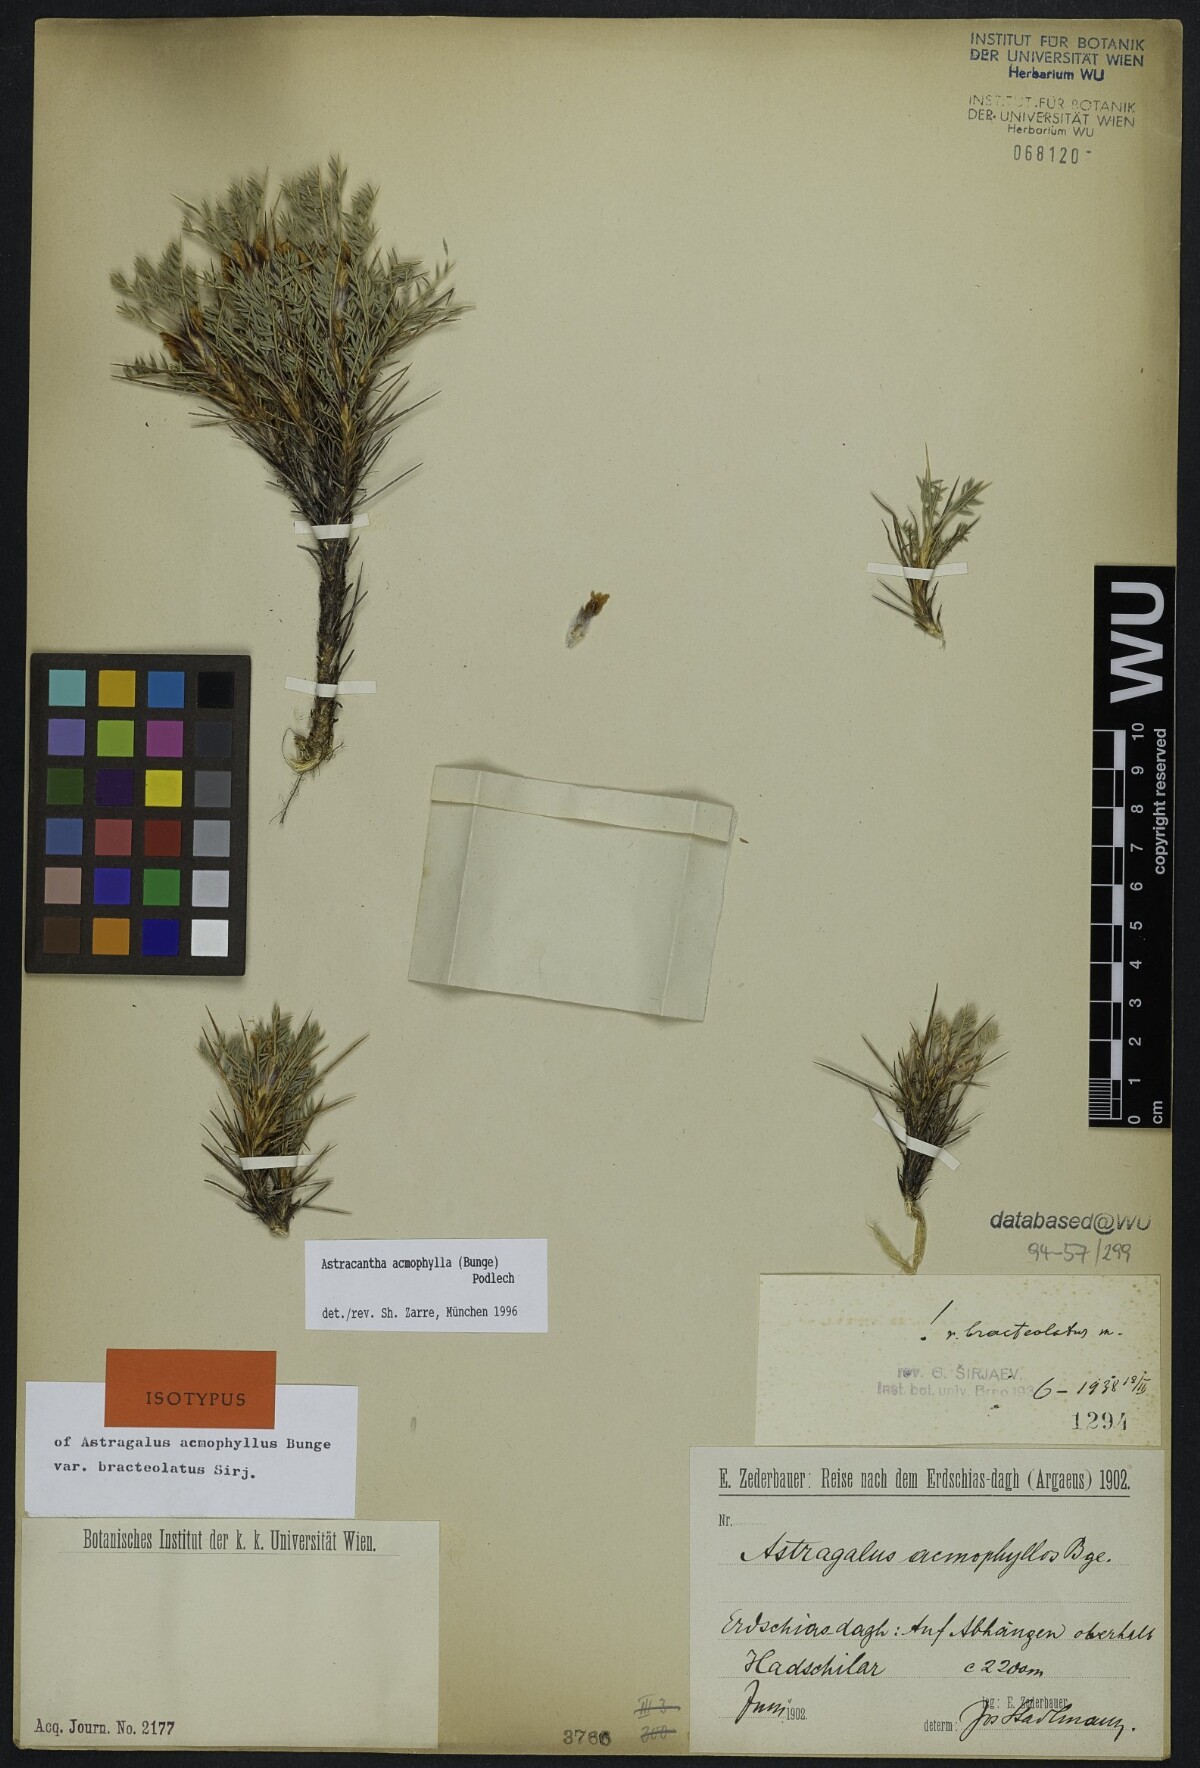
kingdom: Plantae
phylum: Tracheophyta
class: Magnoliopsida
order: Fabales
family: Fabaceae
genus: Astragalus
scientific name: Astragalus acmophyllus
